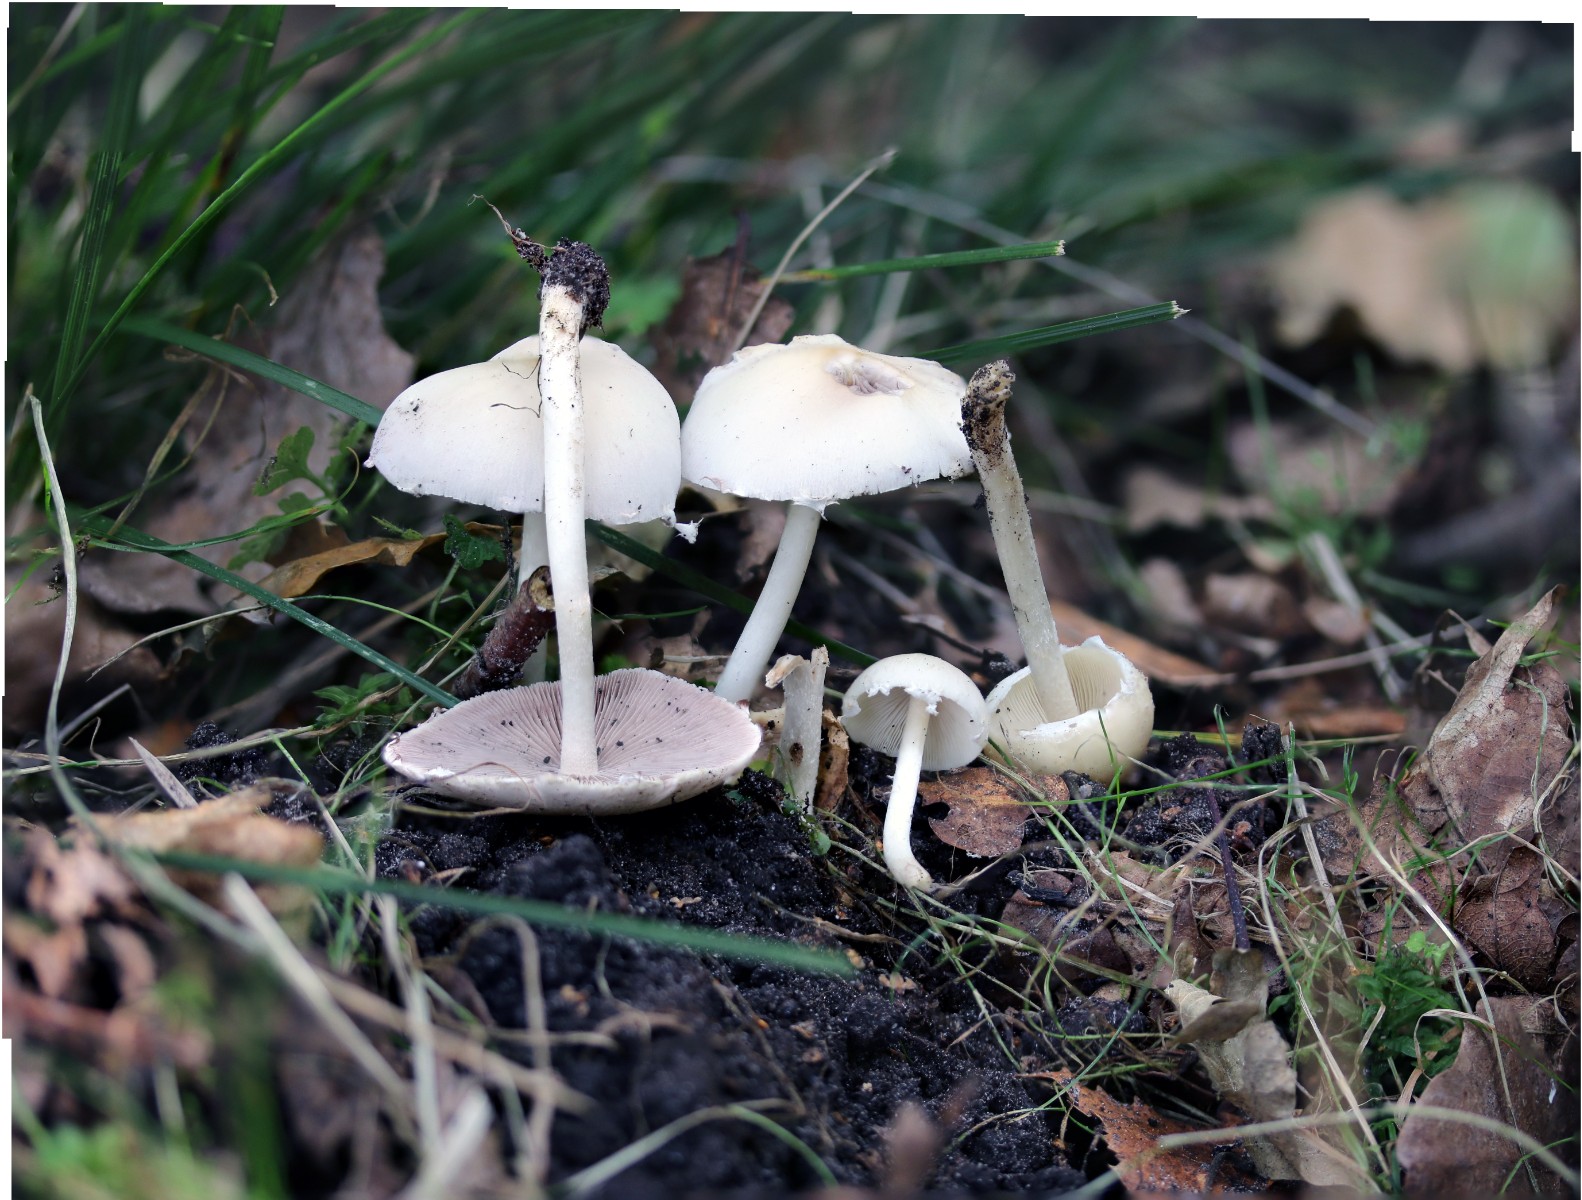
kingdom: Fungi
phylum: Basidiomycota
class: Agaricomycetes
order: Agaricales
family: Psathyrellaceae
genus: Candolleomyces
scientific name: Candolleomyces candolleanus
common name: Candolles mørkhat
